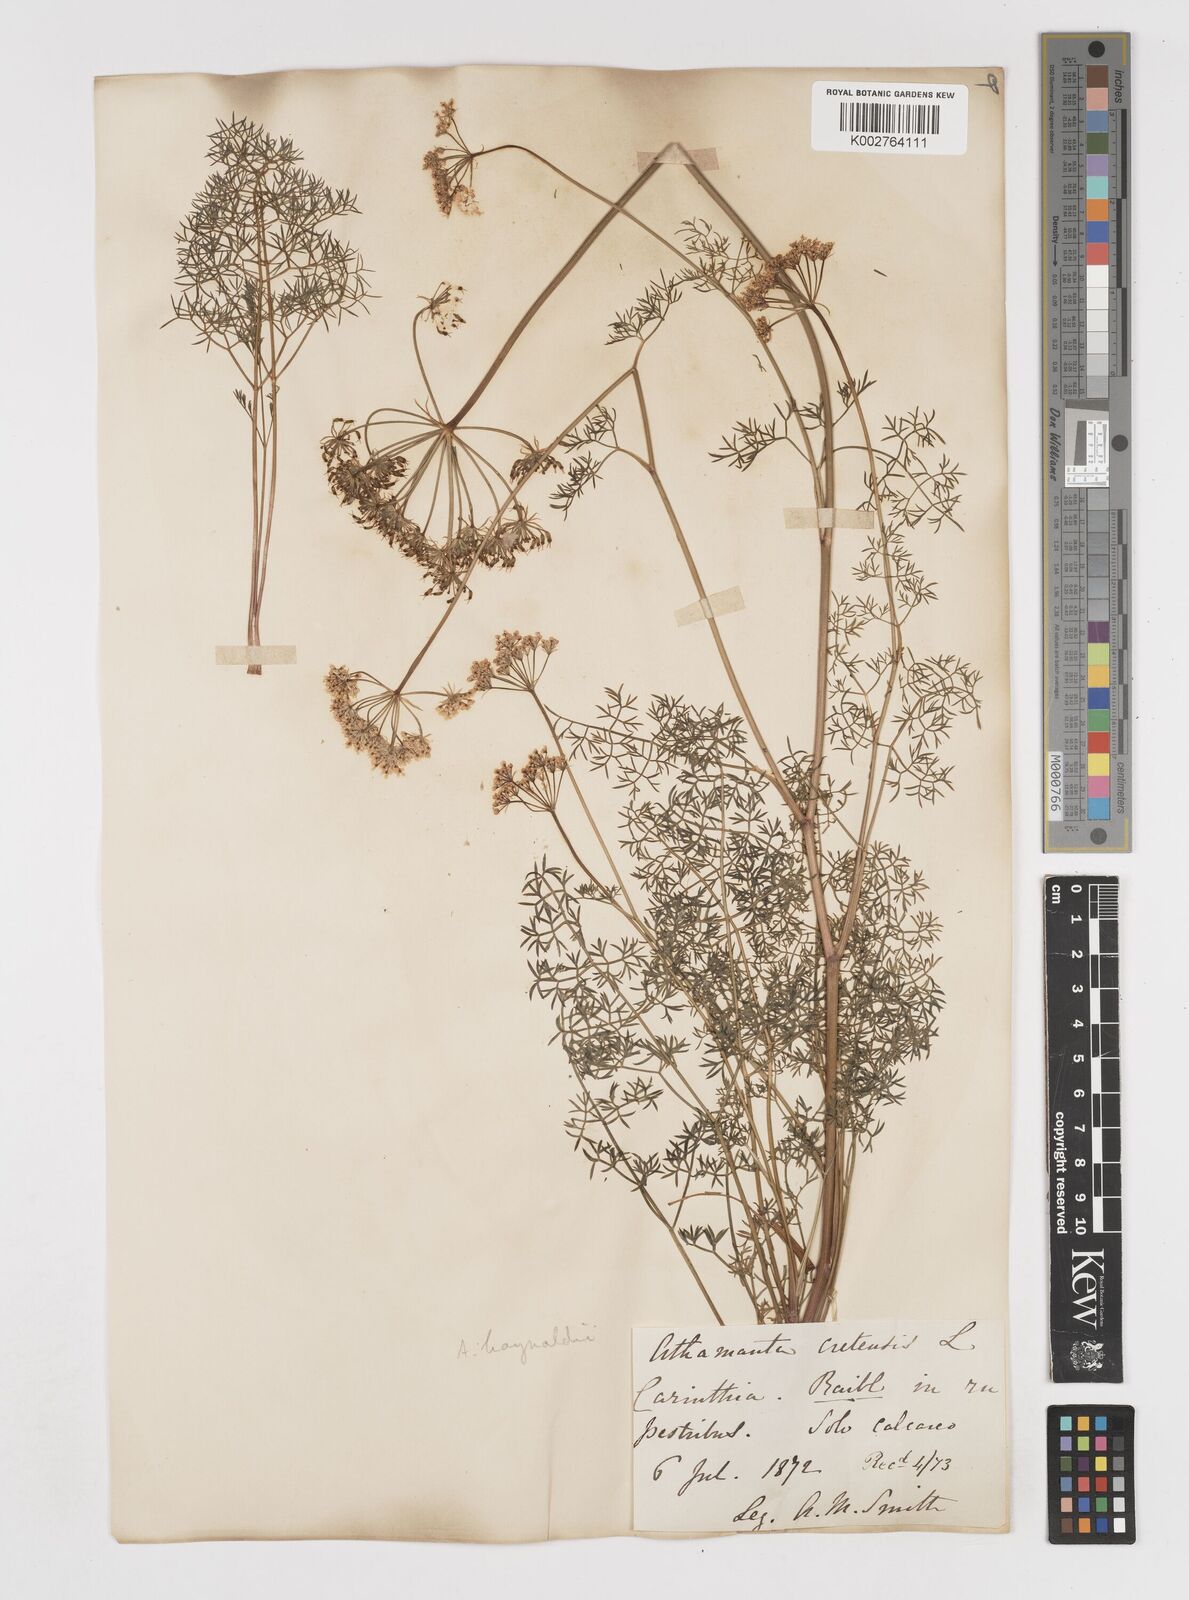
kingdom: Plantae
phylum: Tracheophyta
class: Magnoliopsida
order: Apiales
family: Apiaceae
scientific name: Apiaceae
